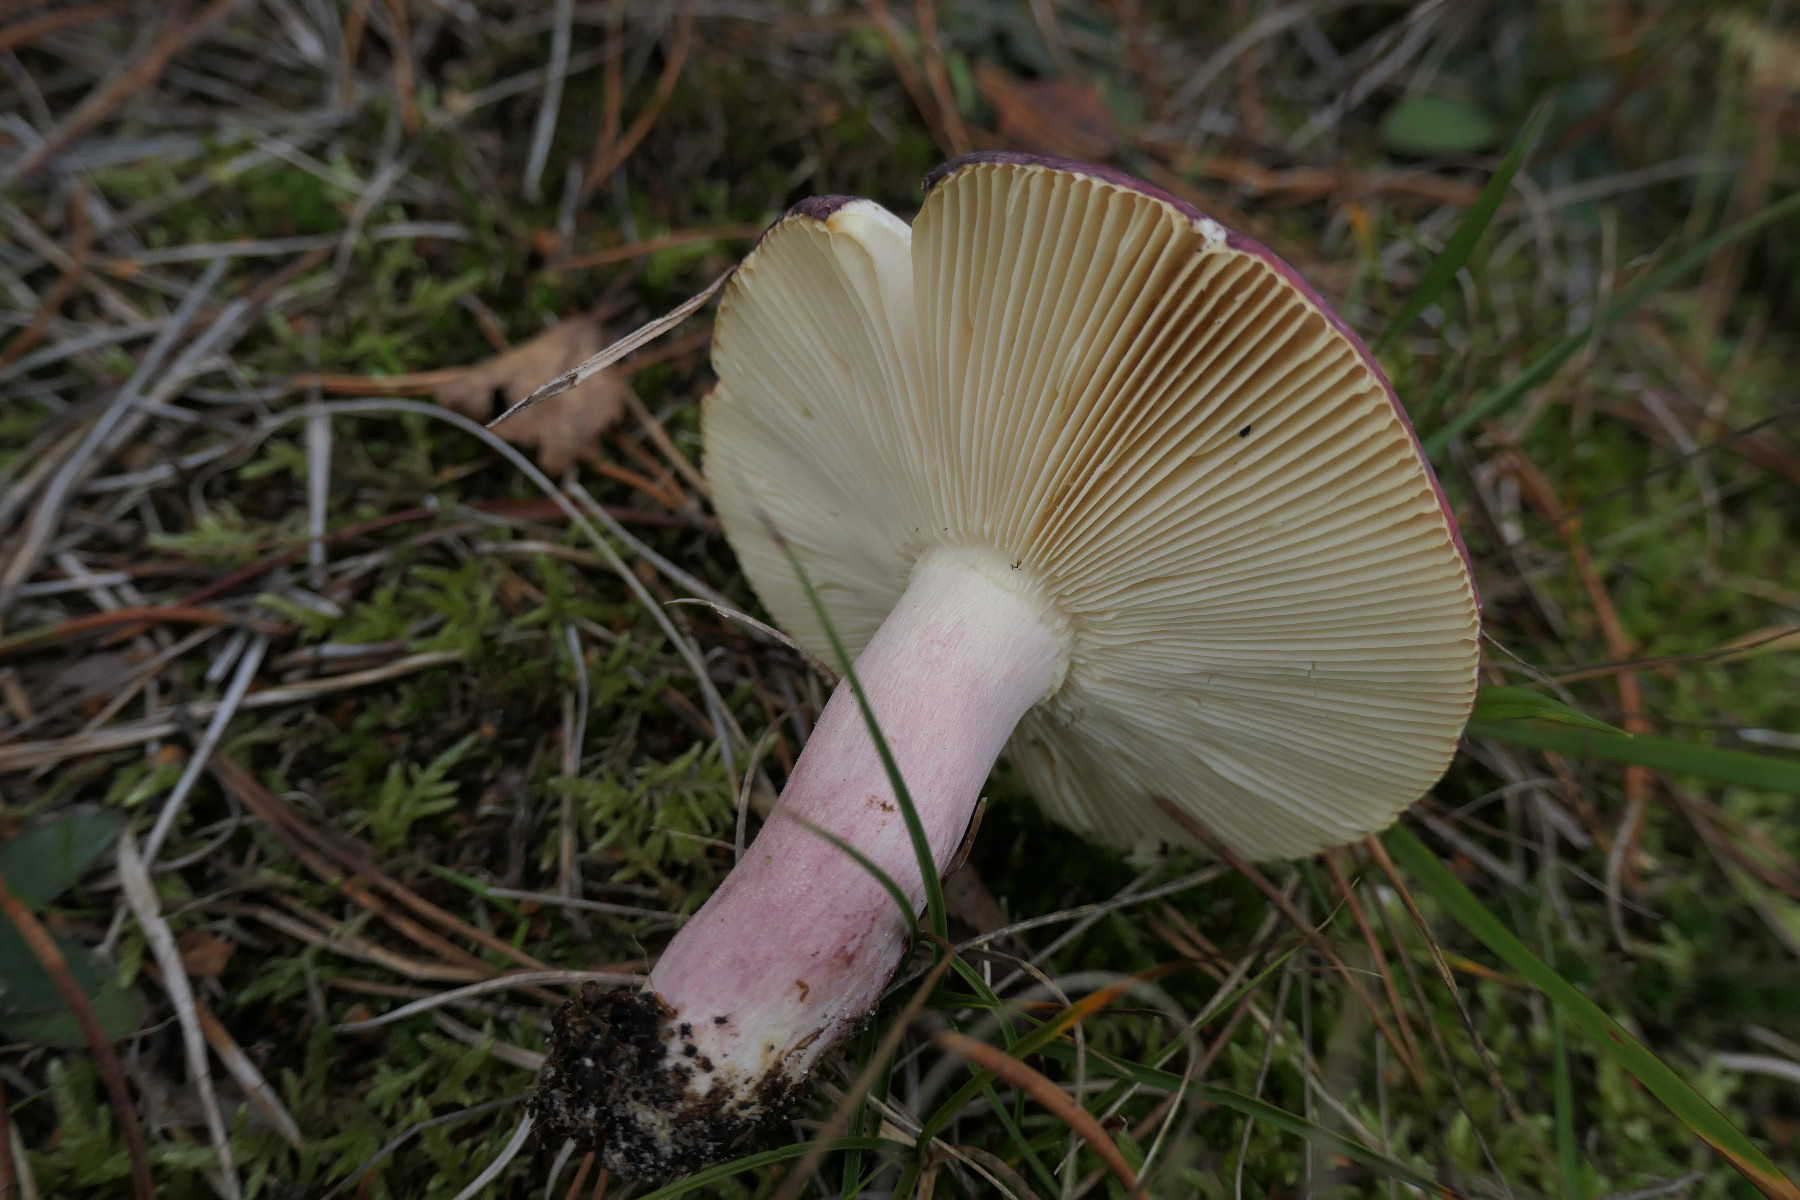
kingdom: Fungi
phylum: Basidiomycota
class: Agaricomycetes
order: Russulales
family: Russulaceae
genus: Russula
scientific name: Russula sardonia
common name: citronbladet skørhat
